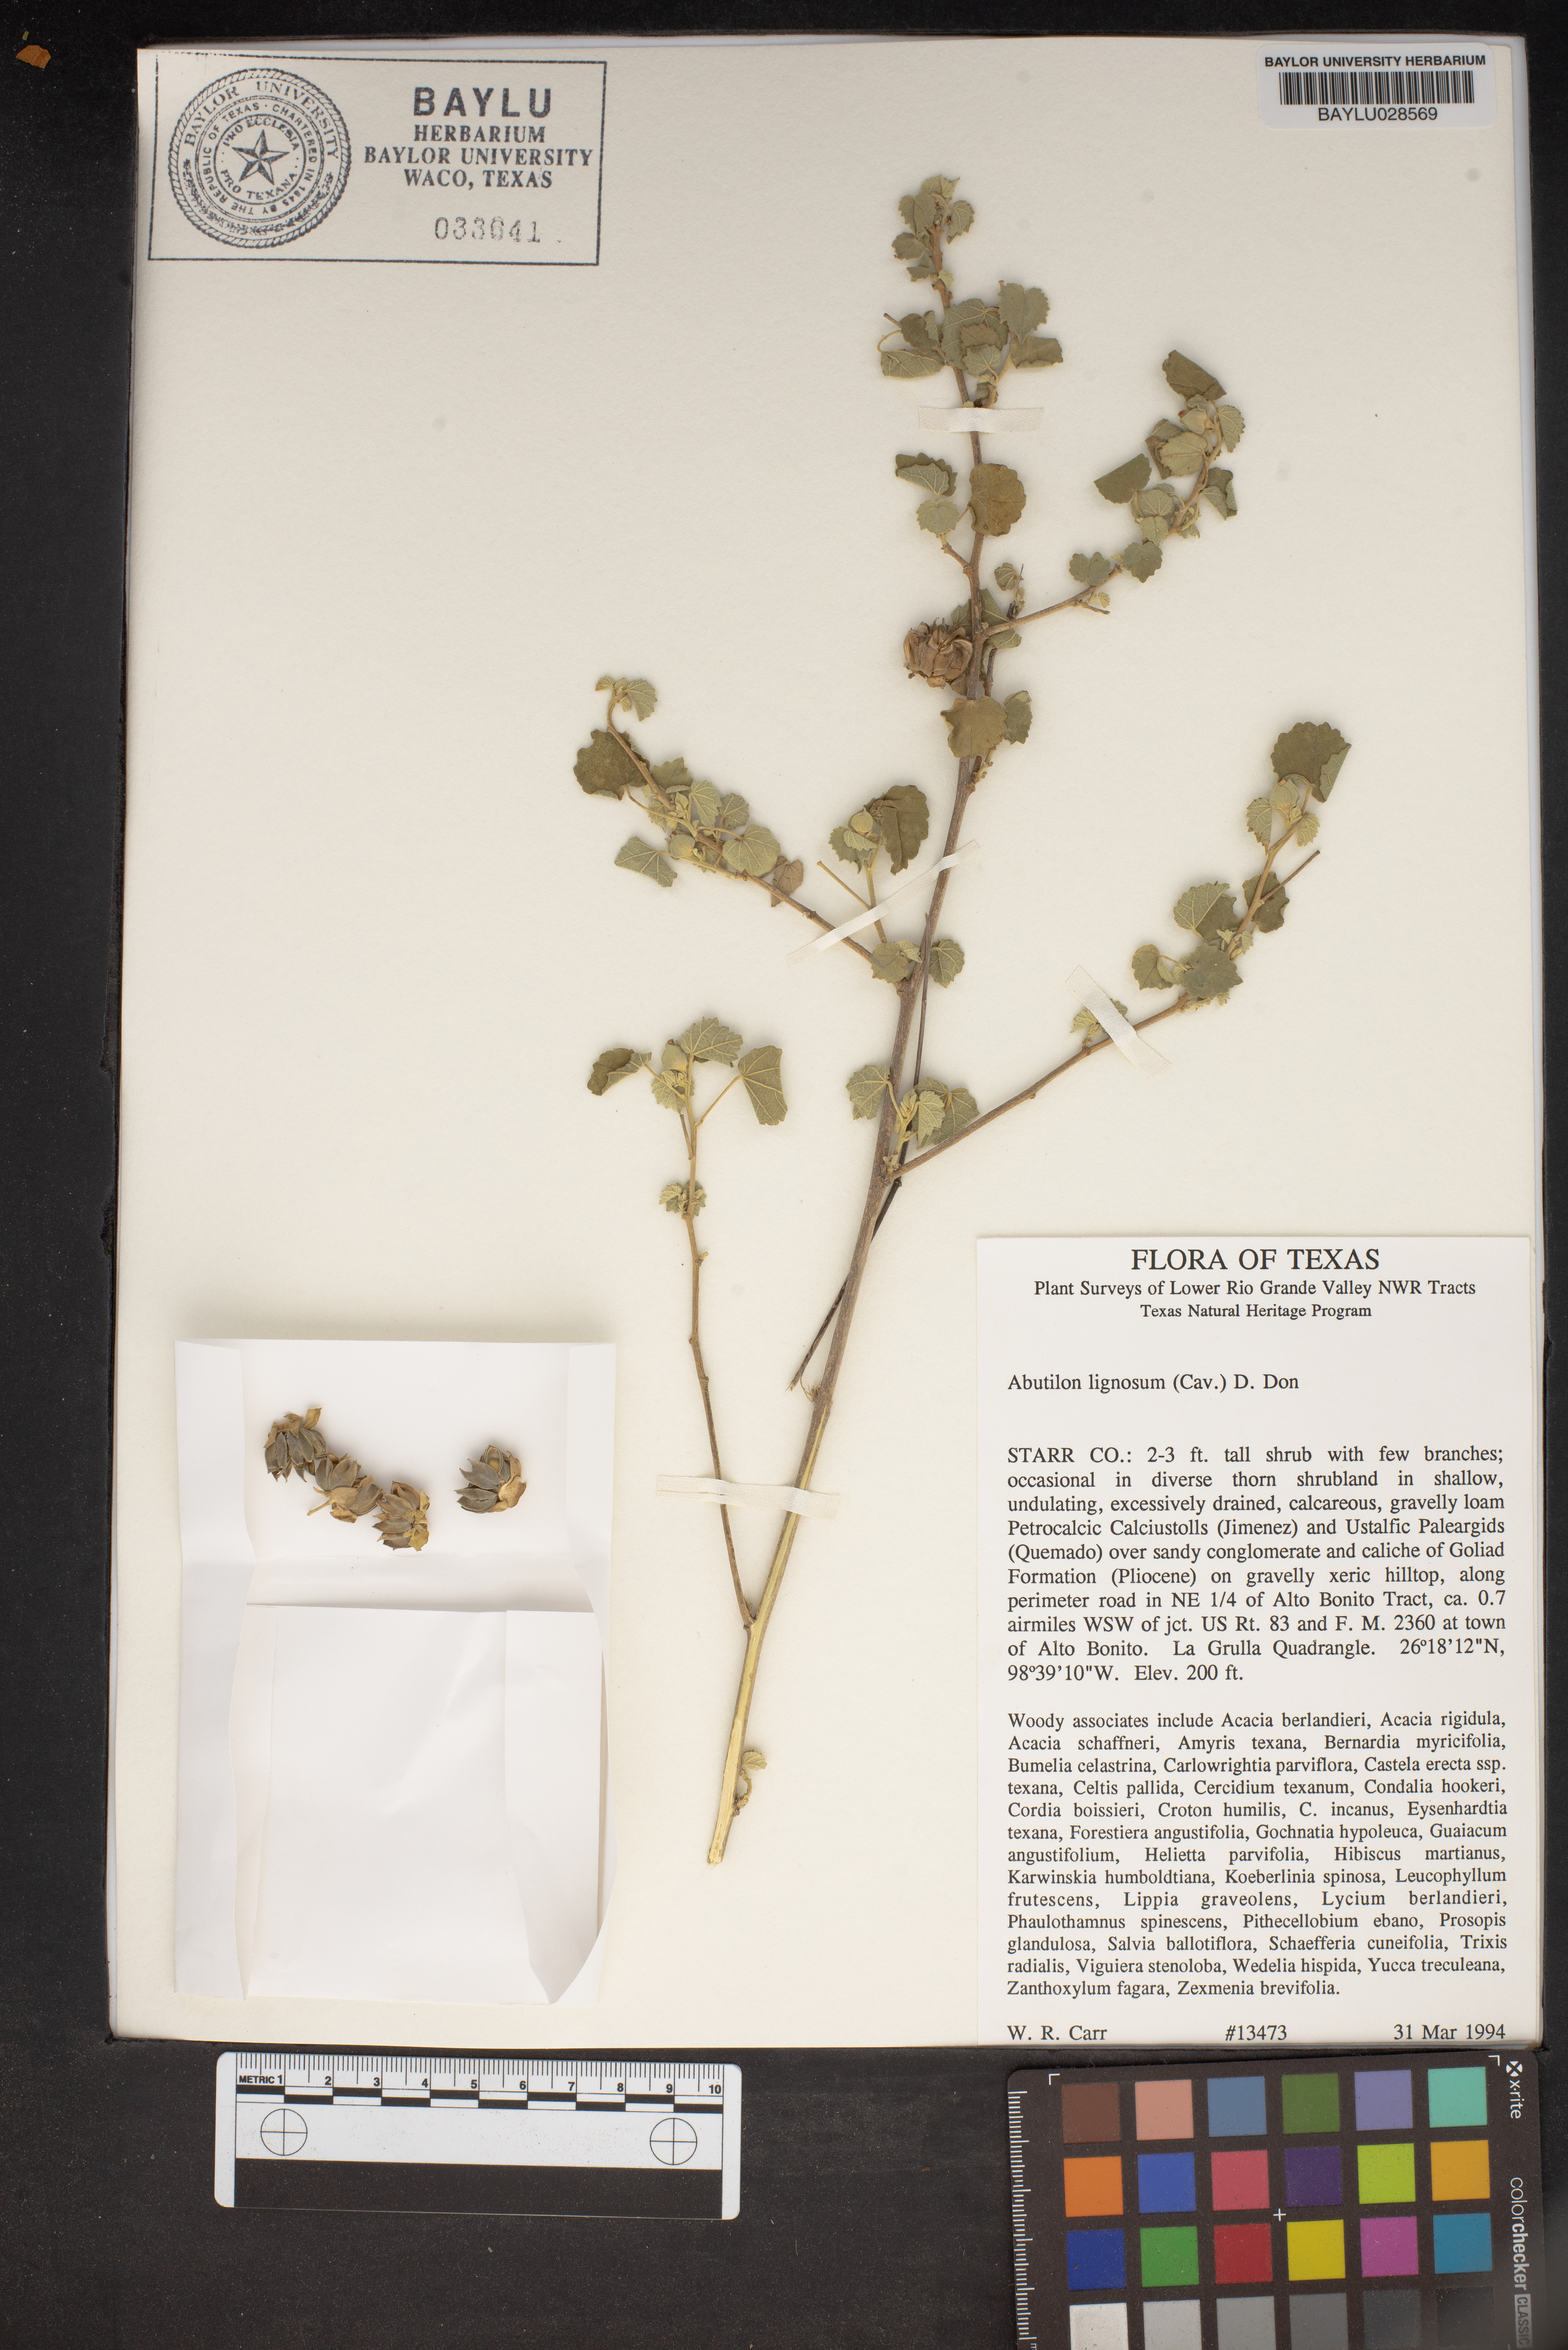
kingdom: Plantae
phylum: Tracheophyta
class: Magnoliopsida
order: Malvales
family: Malvaceae
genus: Abutilon
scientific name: Abutilon abutiloides
